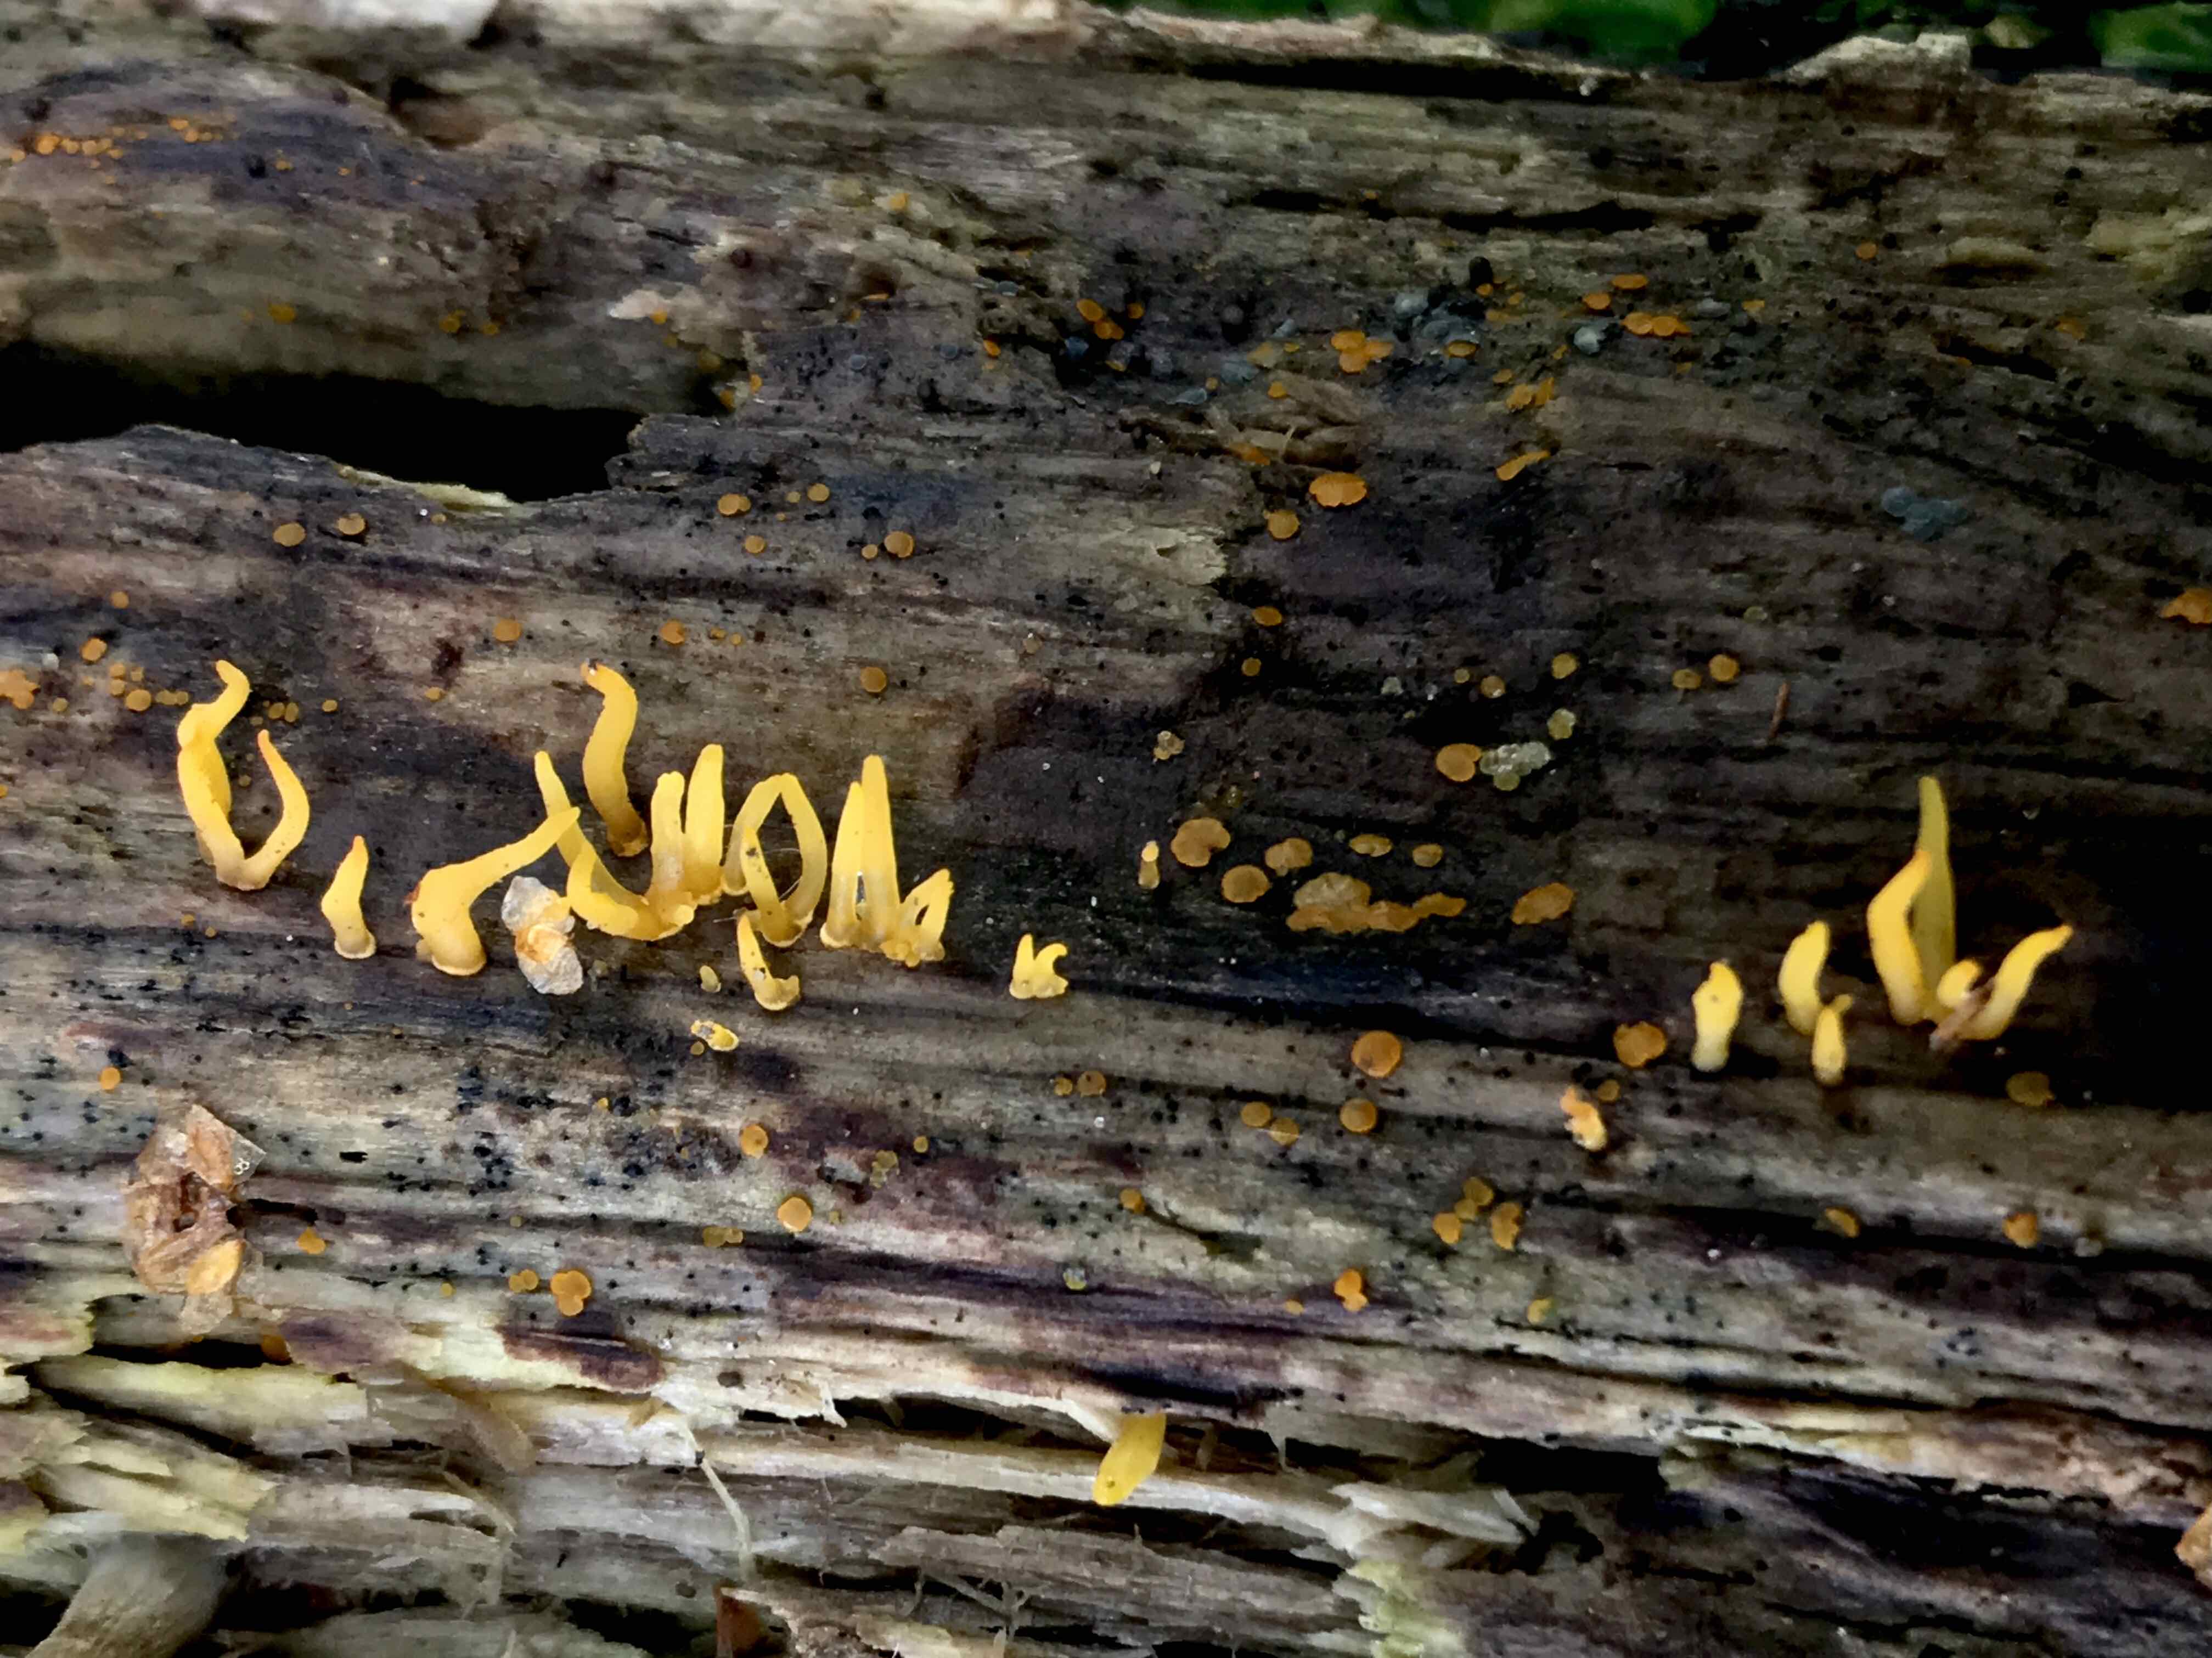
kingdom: Fungi
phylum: Basidiomycota
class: Dacrymycetes
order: Dacrymycetales
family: Dacrymycetaceae
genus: Calocera
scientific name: Calocera cornea
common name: liden guldgaffel
